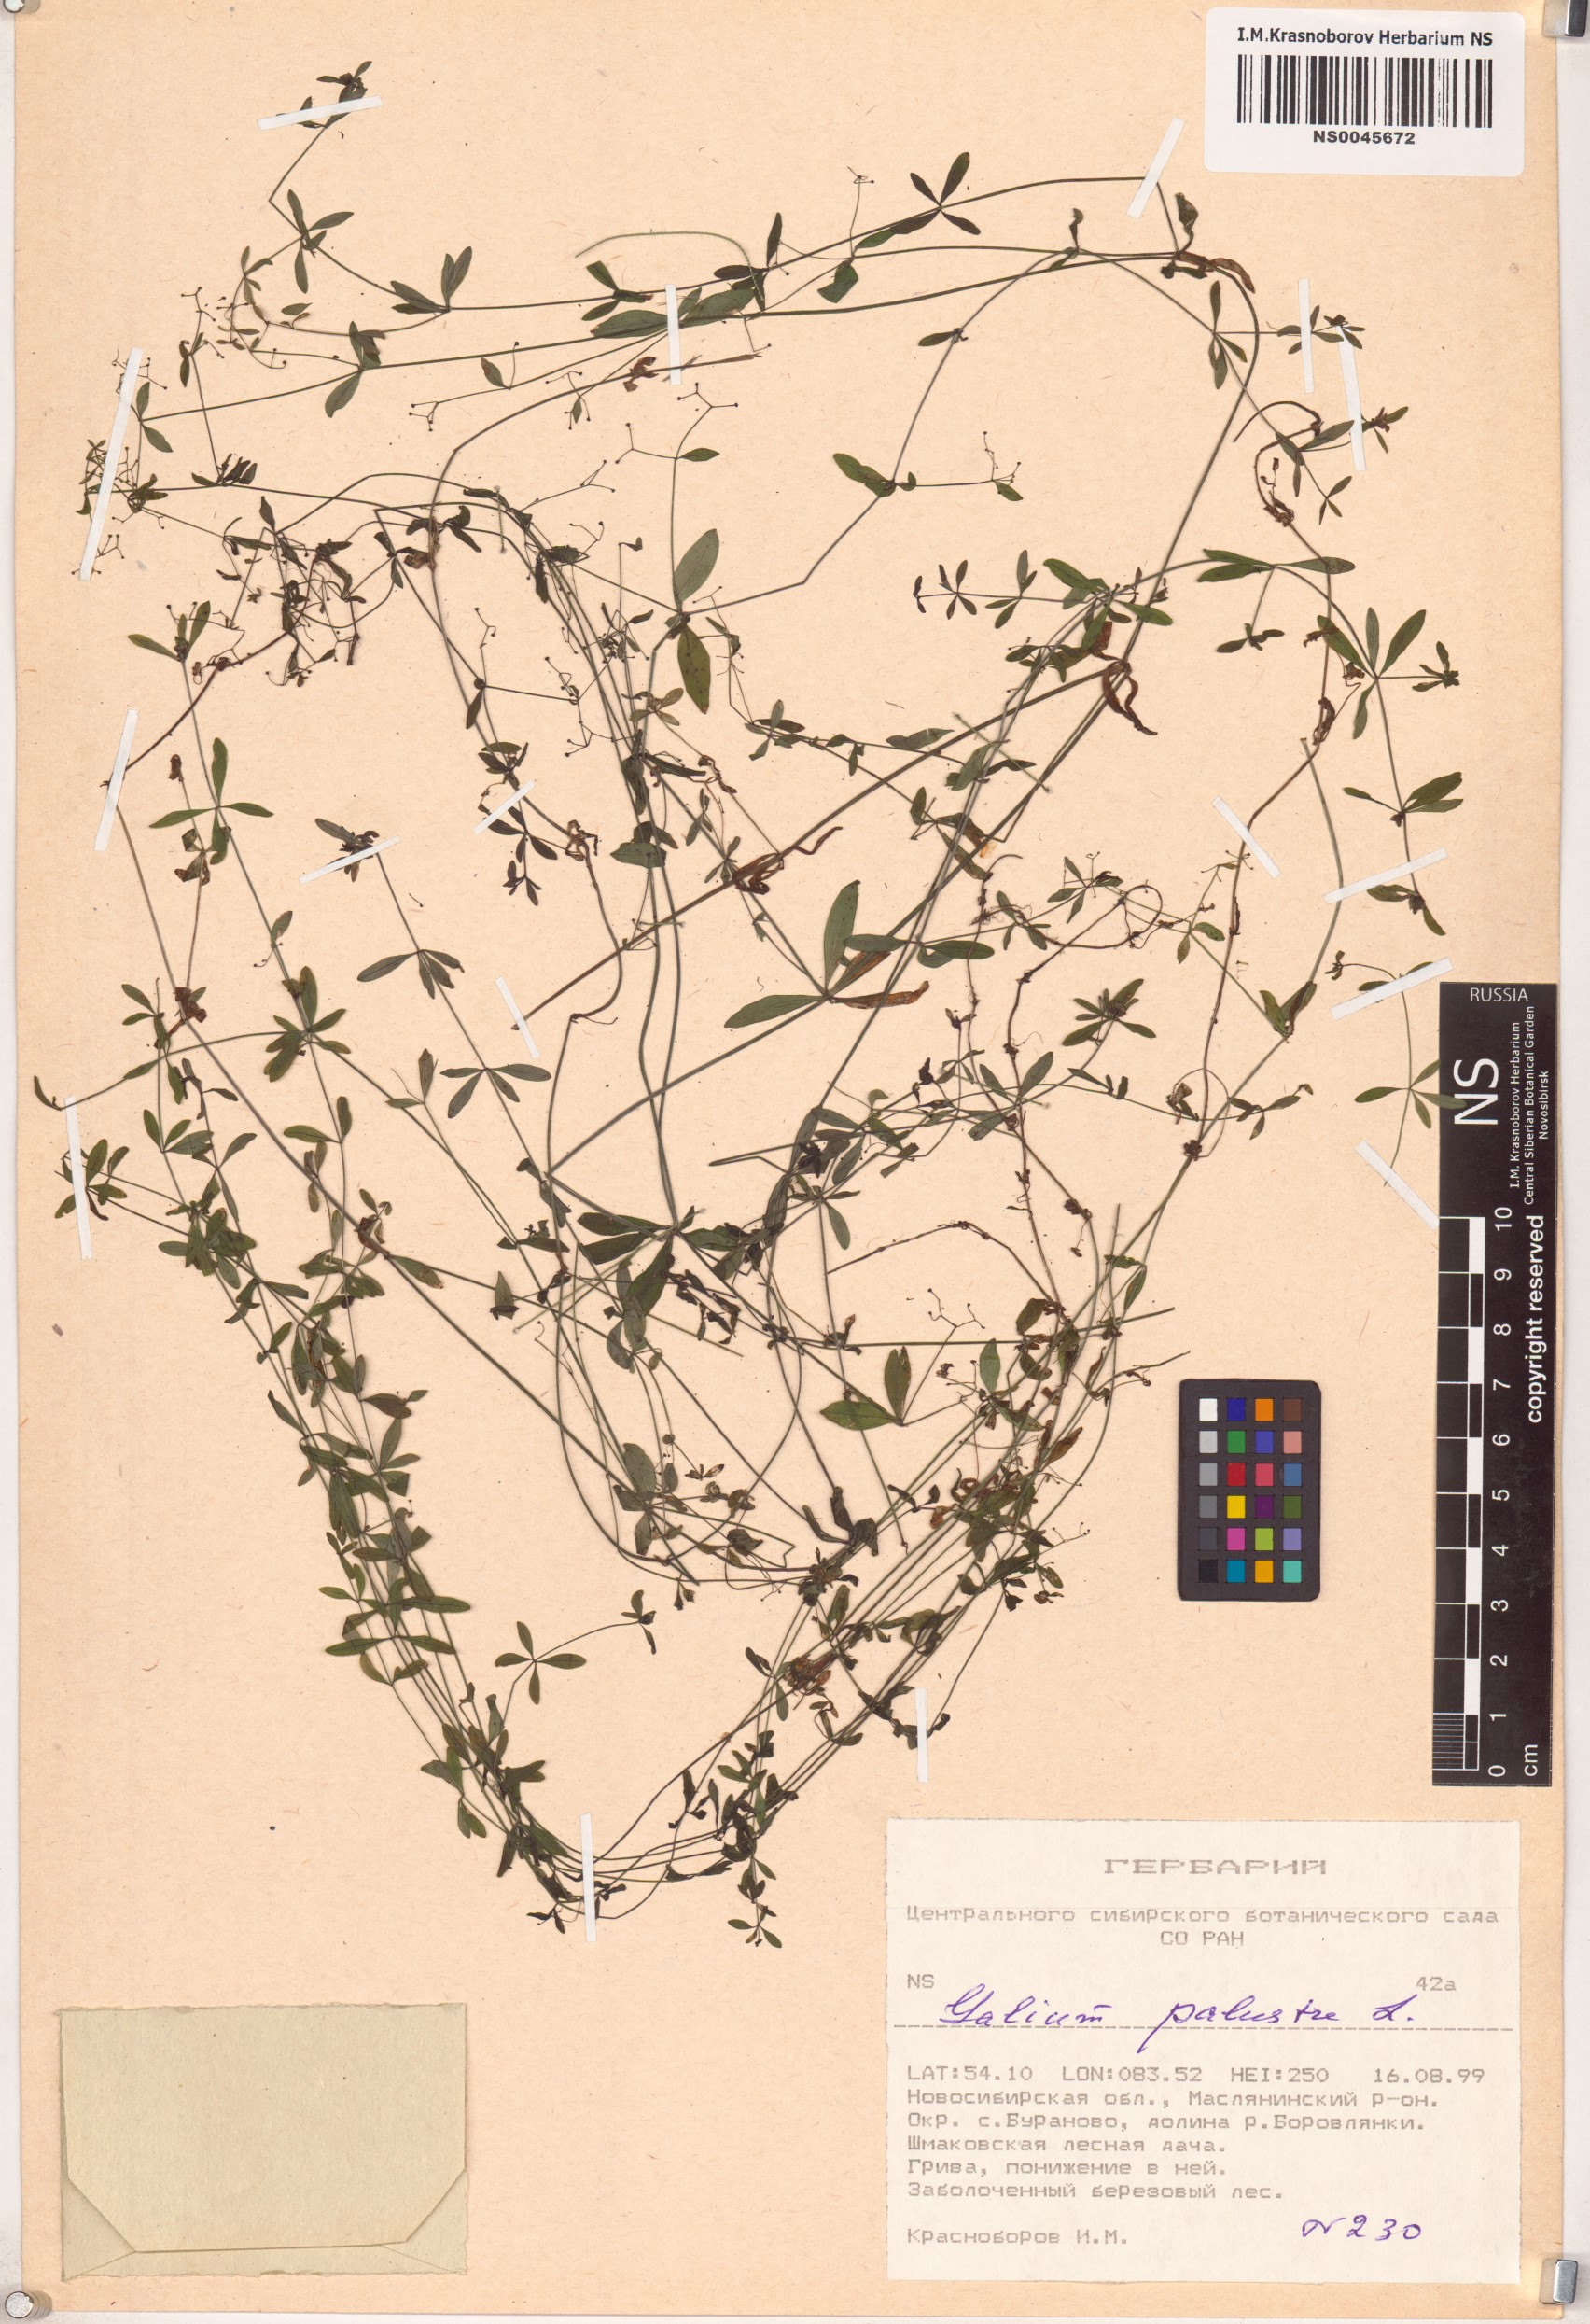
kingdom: Plantae
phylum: Tracheophyta
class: Magnoliopsida
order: Gentianales
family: Rubiaceae
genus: Galium
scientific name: Galium palustre
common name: Common marsh-bedstraw
